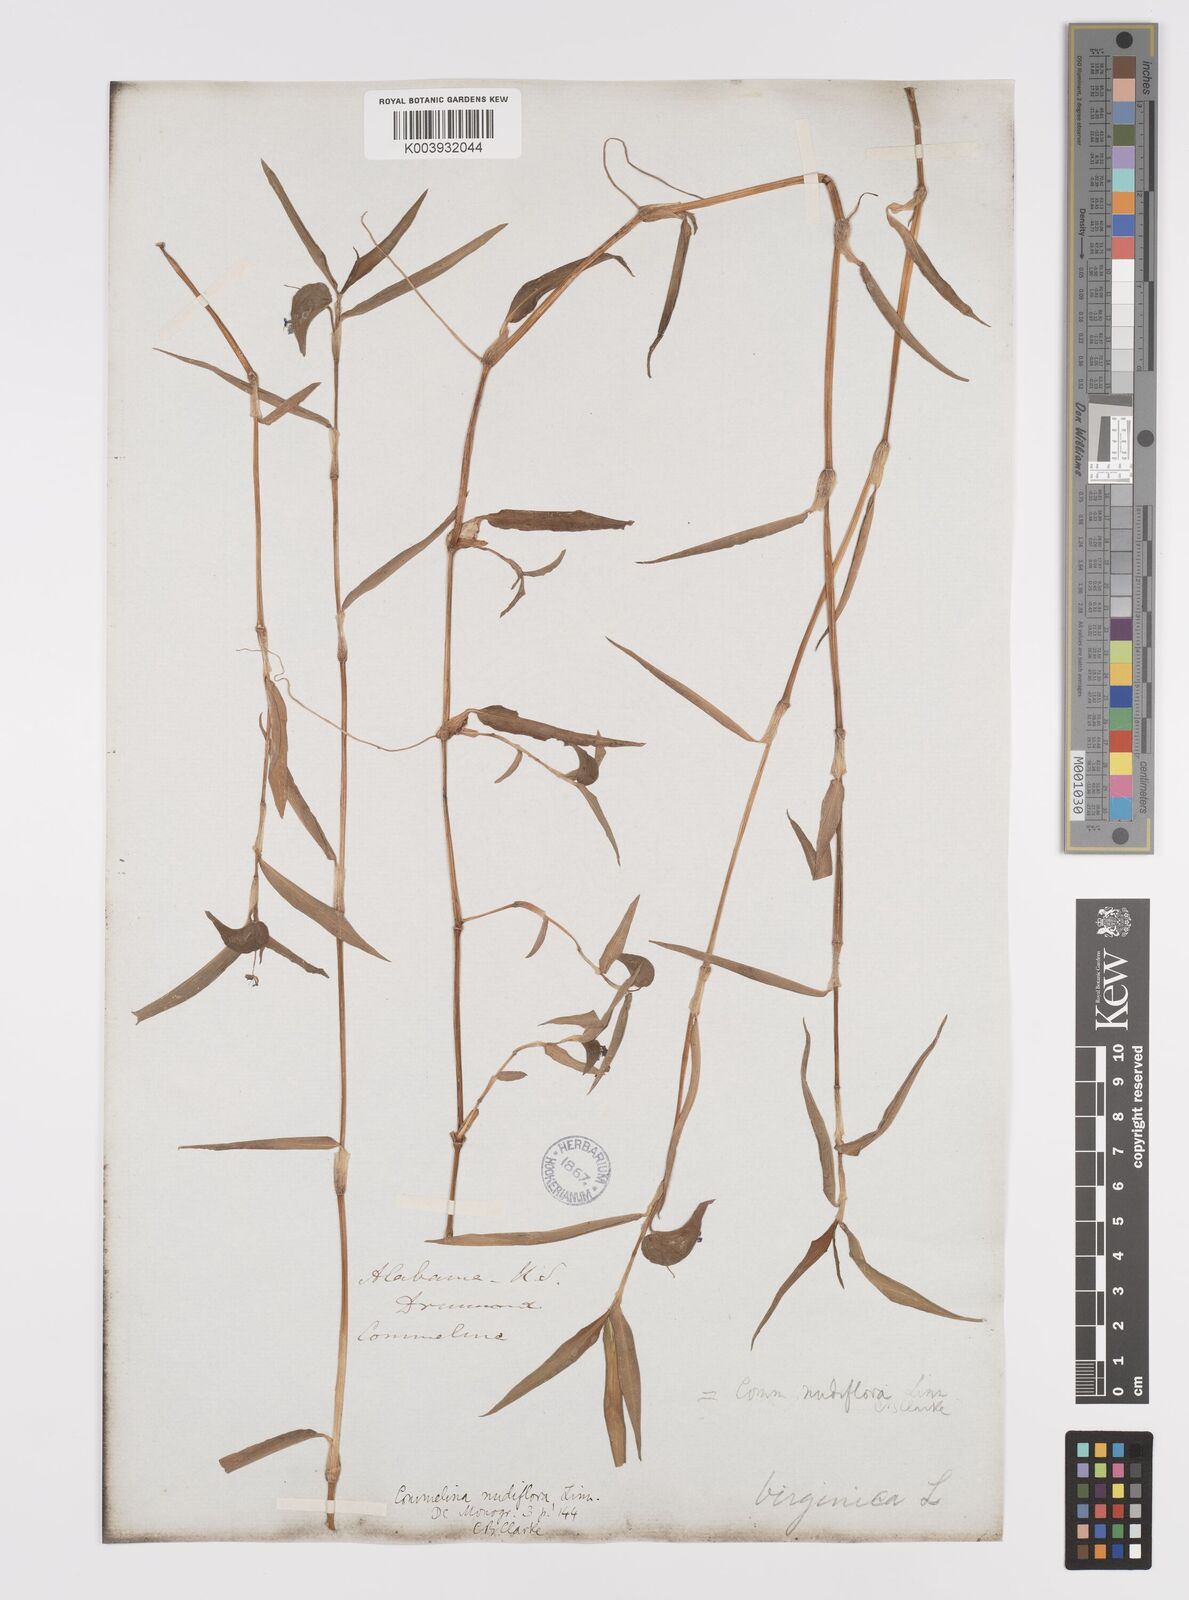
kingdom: Plantae
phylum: Tracheophyta
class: Liliopsida
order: Commelinales
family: Commelinaceae
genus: Murdannia
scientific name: Murdannia nudiflora
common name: Nakedstem dewflower
